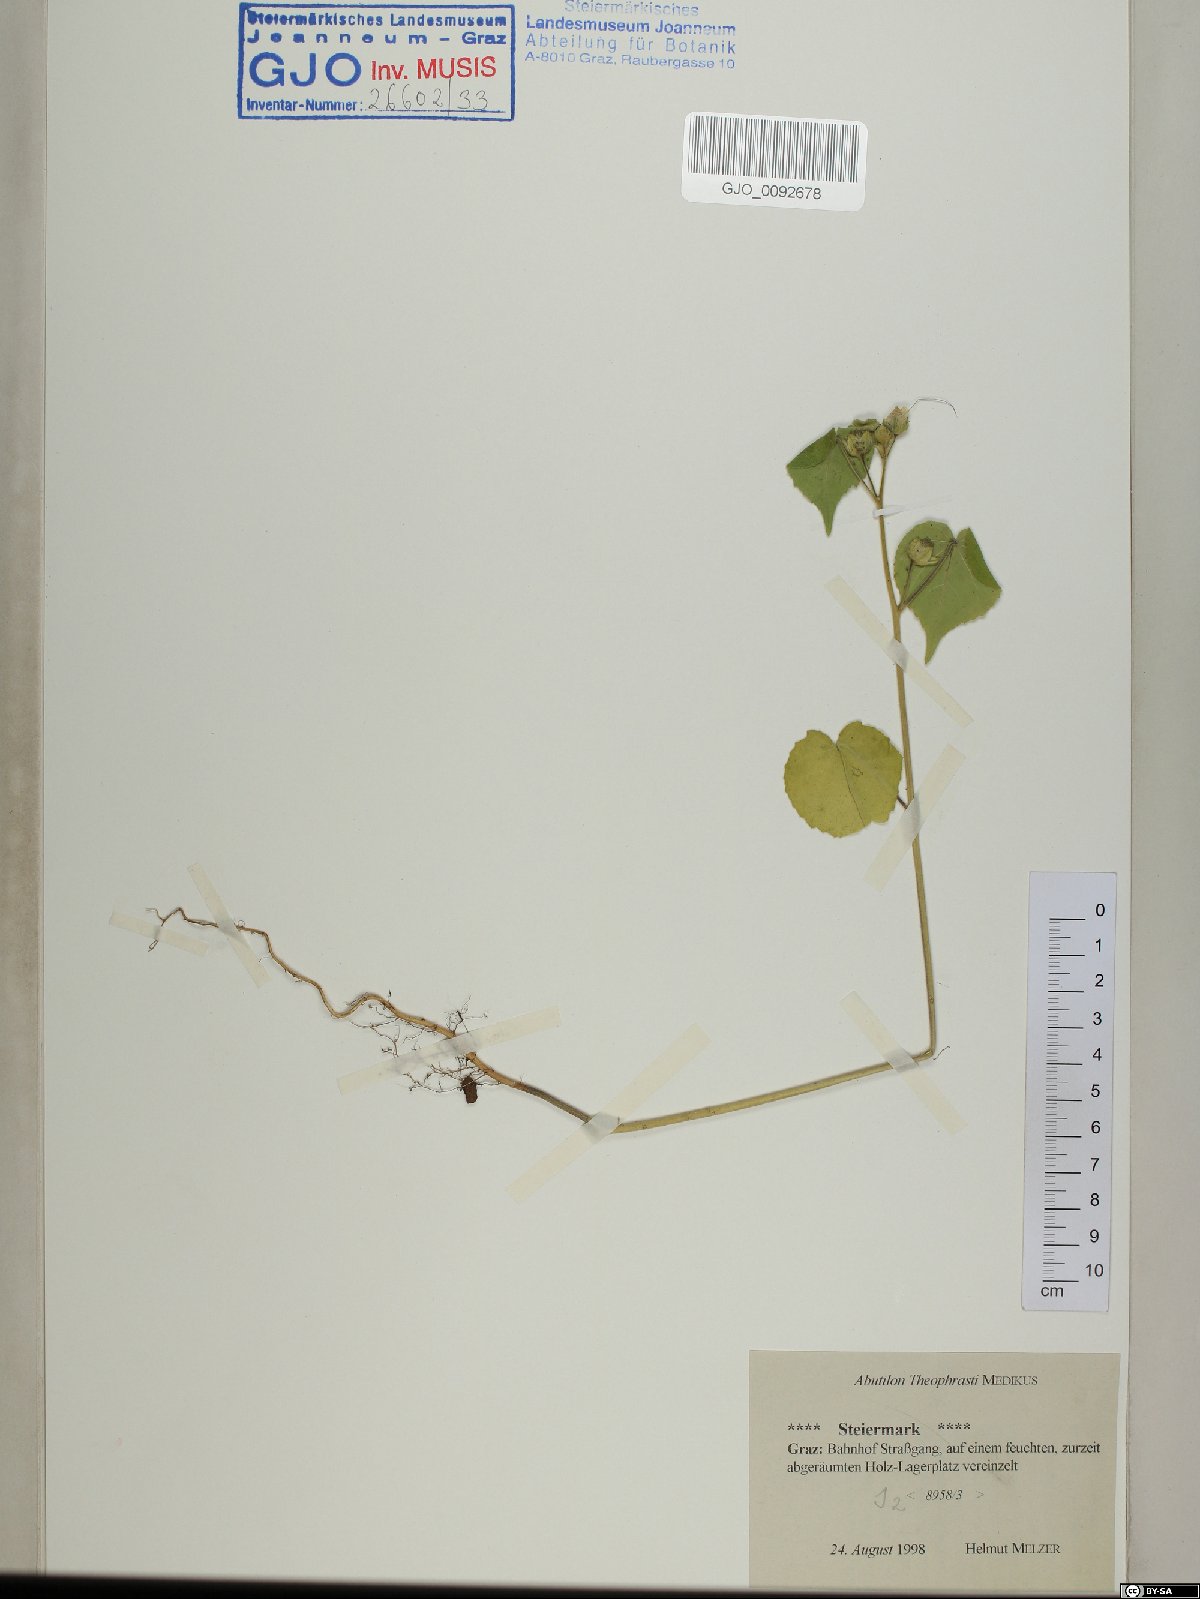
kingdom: Plantae
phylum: Tracheophyta
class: Magnoliopsida
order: Malvales
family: Malvaceae
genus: Abutilon
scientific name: Abutilon theophrasti
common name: Velvetleaf
